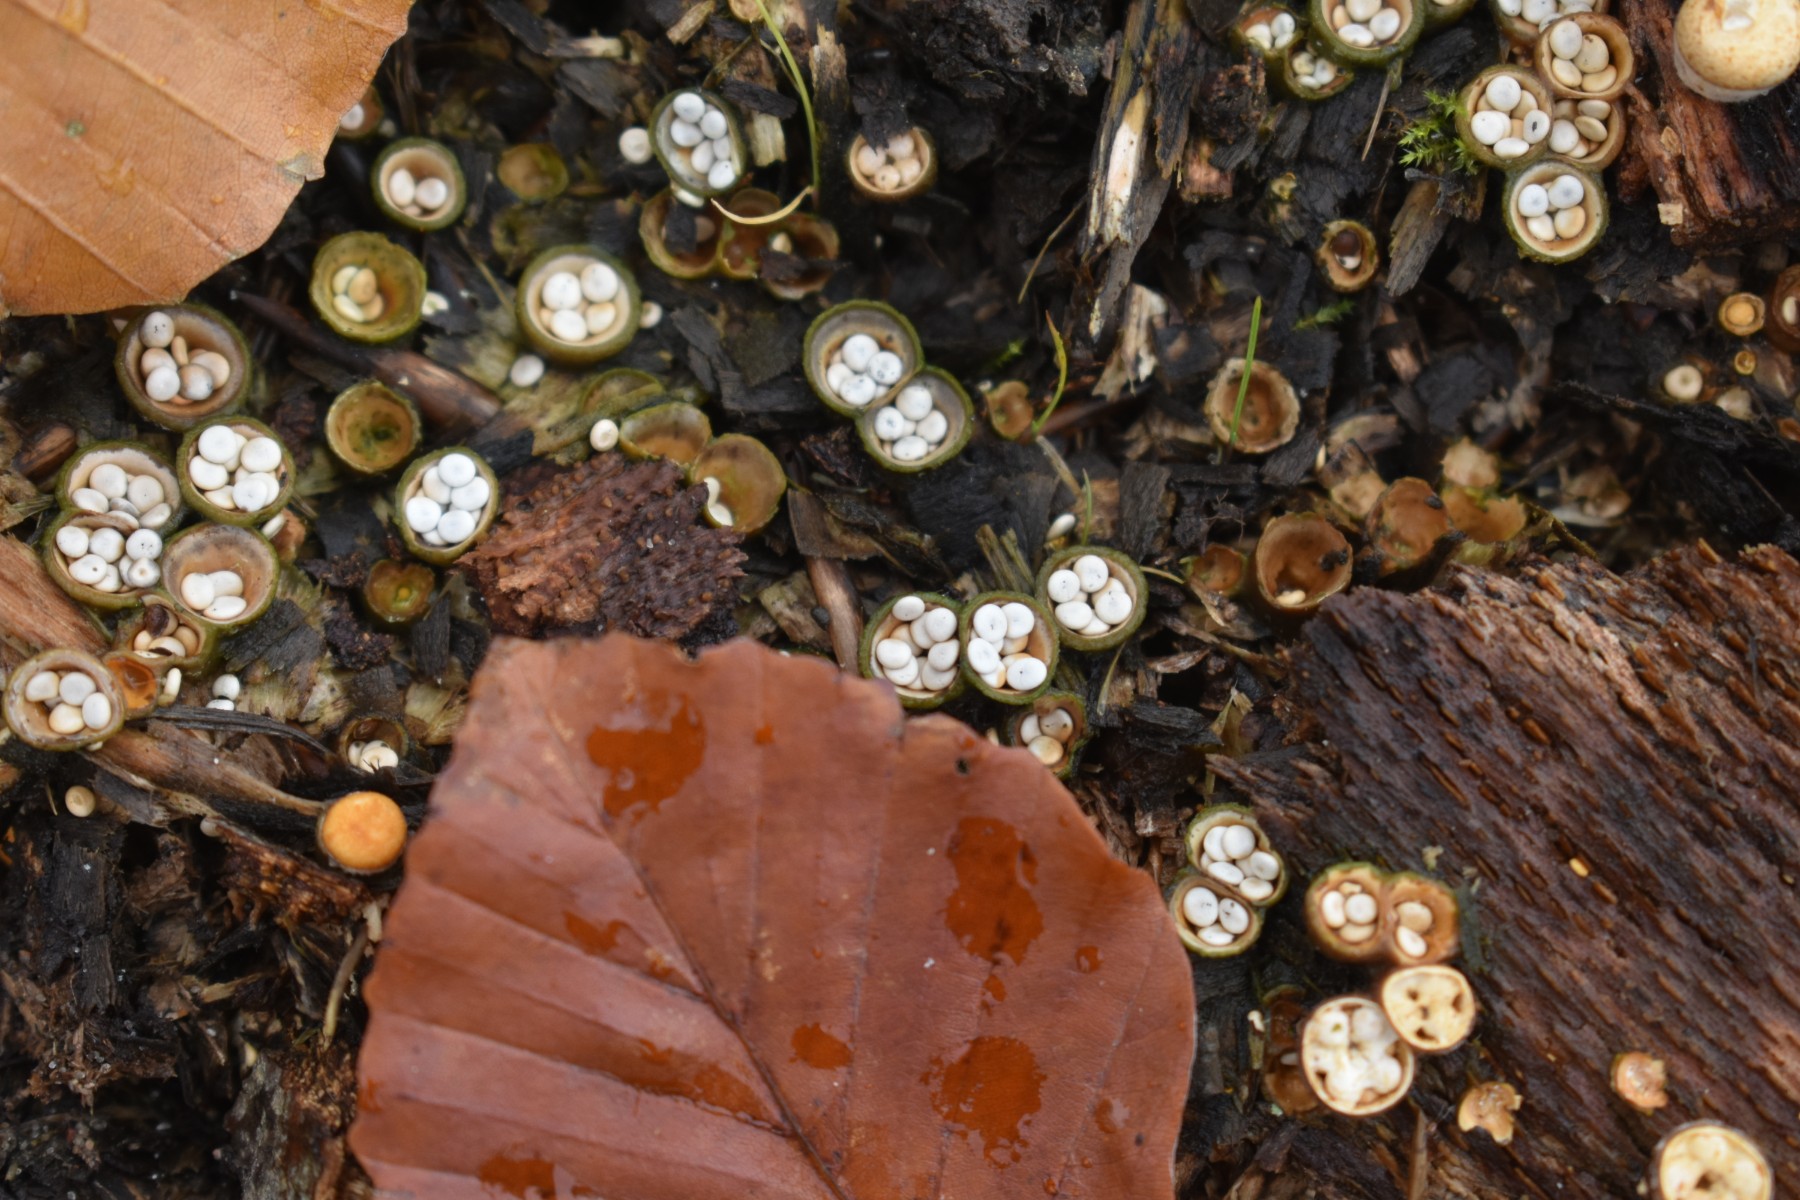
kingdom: Fungi
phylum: Basidiomycota
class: Agaricomycetes
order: Agaricales
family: Nidulariaceae
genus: Crucibulum
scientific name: Crucibulum crucibuliforme
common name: krukkesvamp
